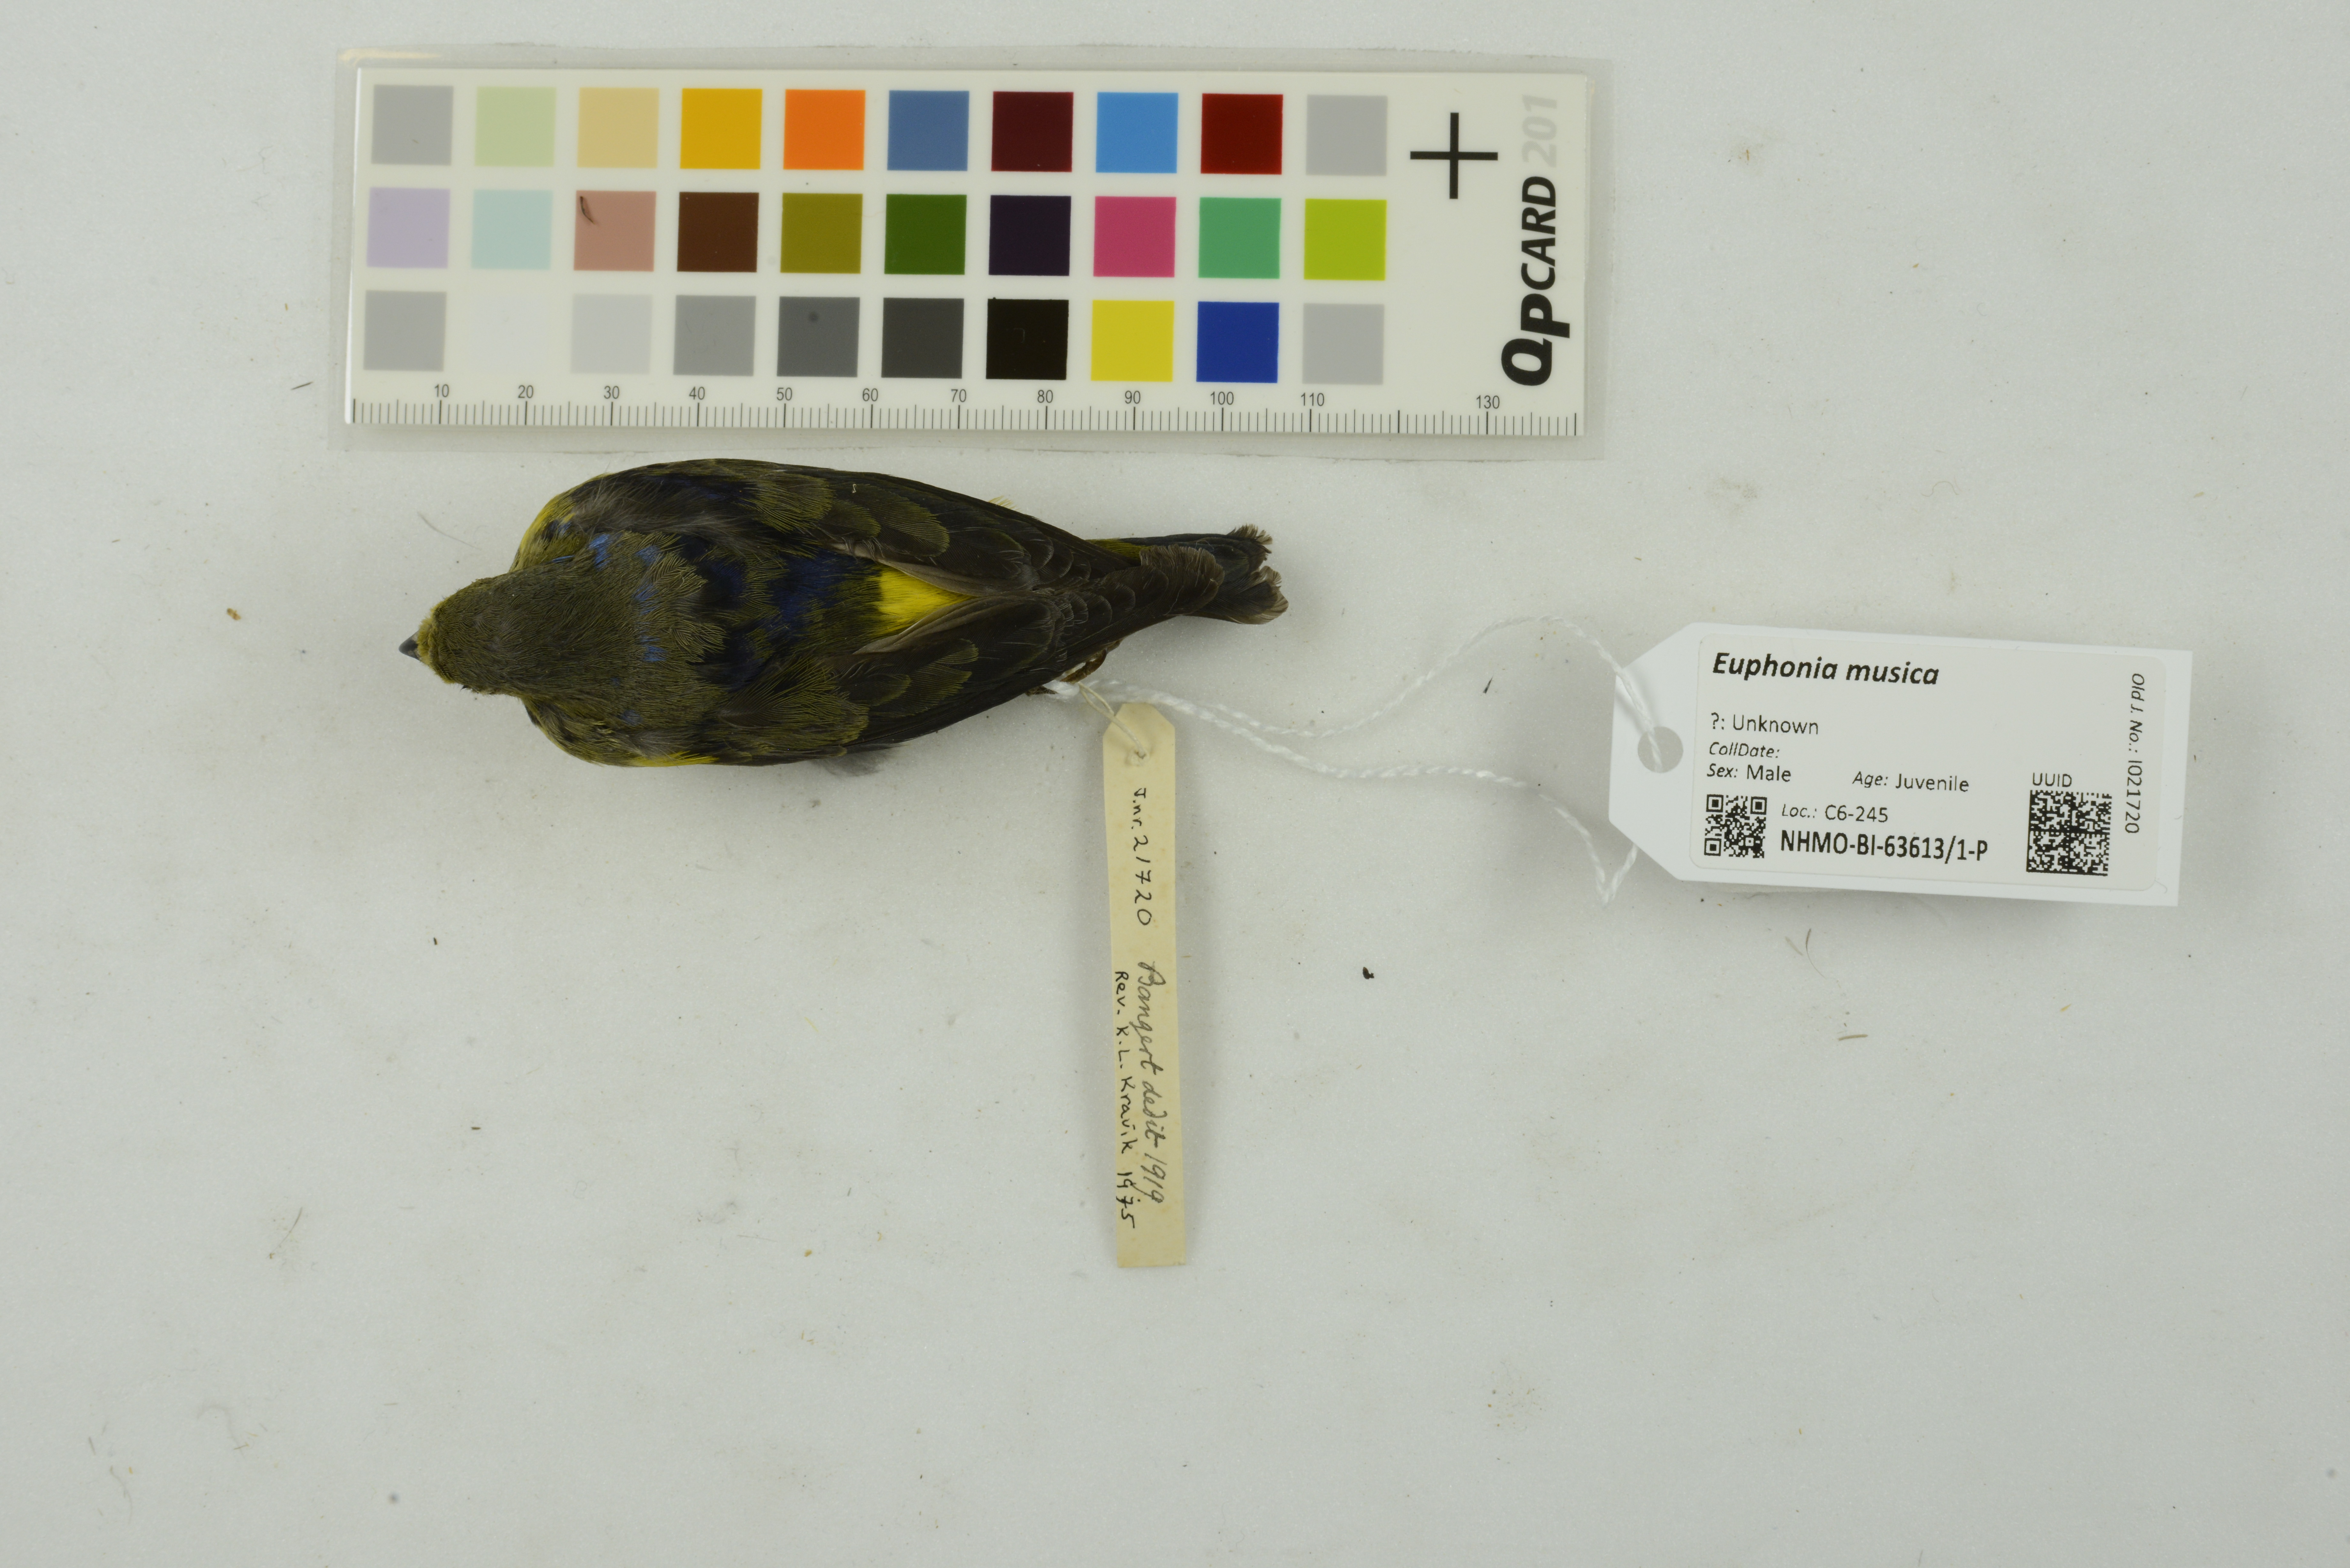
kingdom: Animalia
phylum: Chordata
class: Aves
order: Passeriformes
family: Fringillidae
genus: Euphonia
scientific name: Euphonia musica
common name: Antillean euphonia
